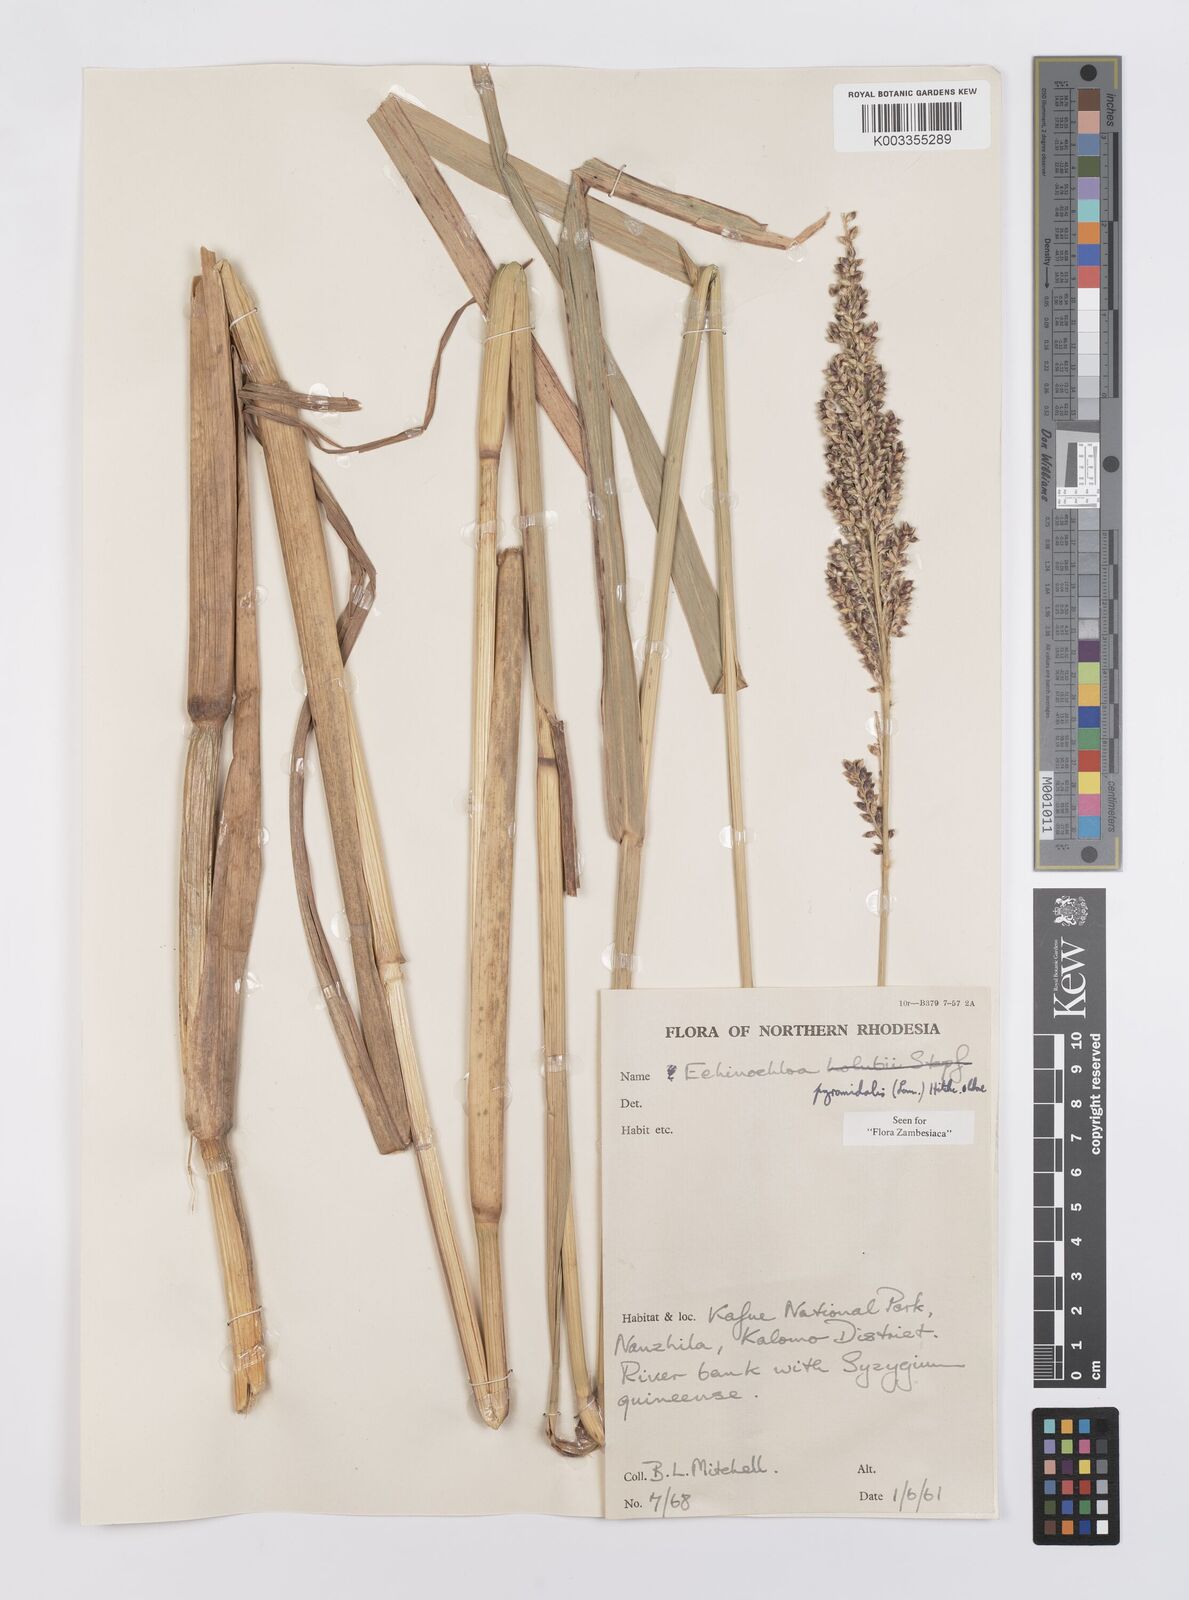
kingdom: Plantae
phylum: Tracheophyta
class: Liliopsida
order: Poales
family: Poaceae
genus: Echinochloa
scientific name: Echinochloa pyramidalis
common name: Antelope grass
